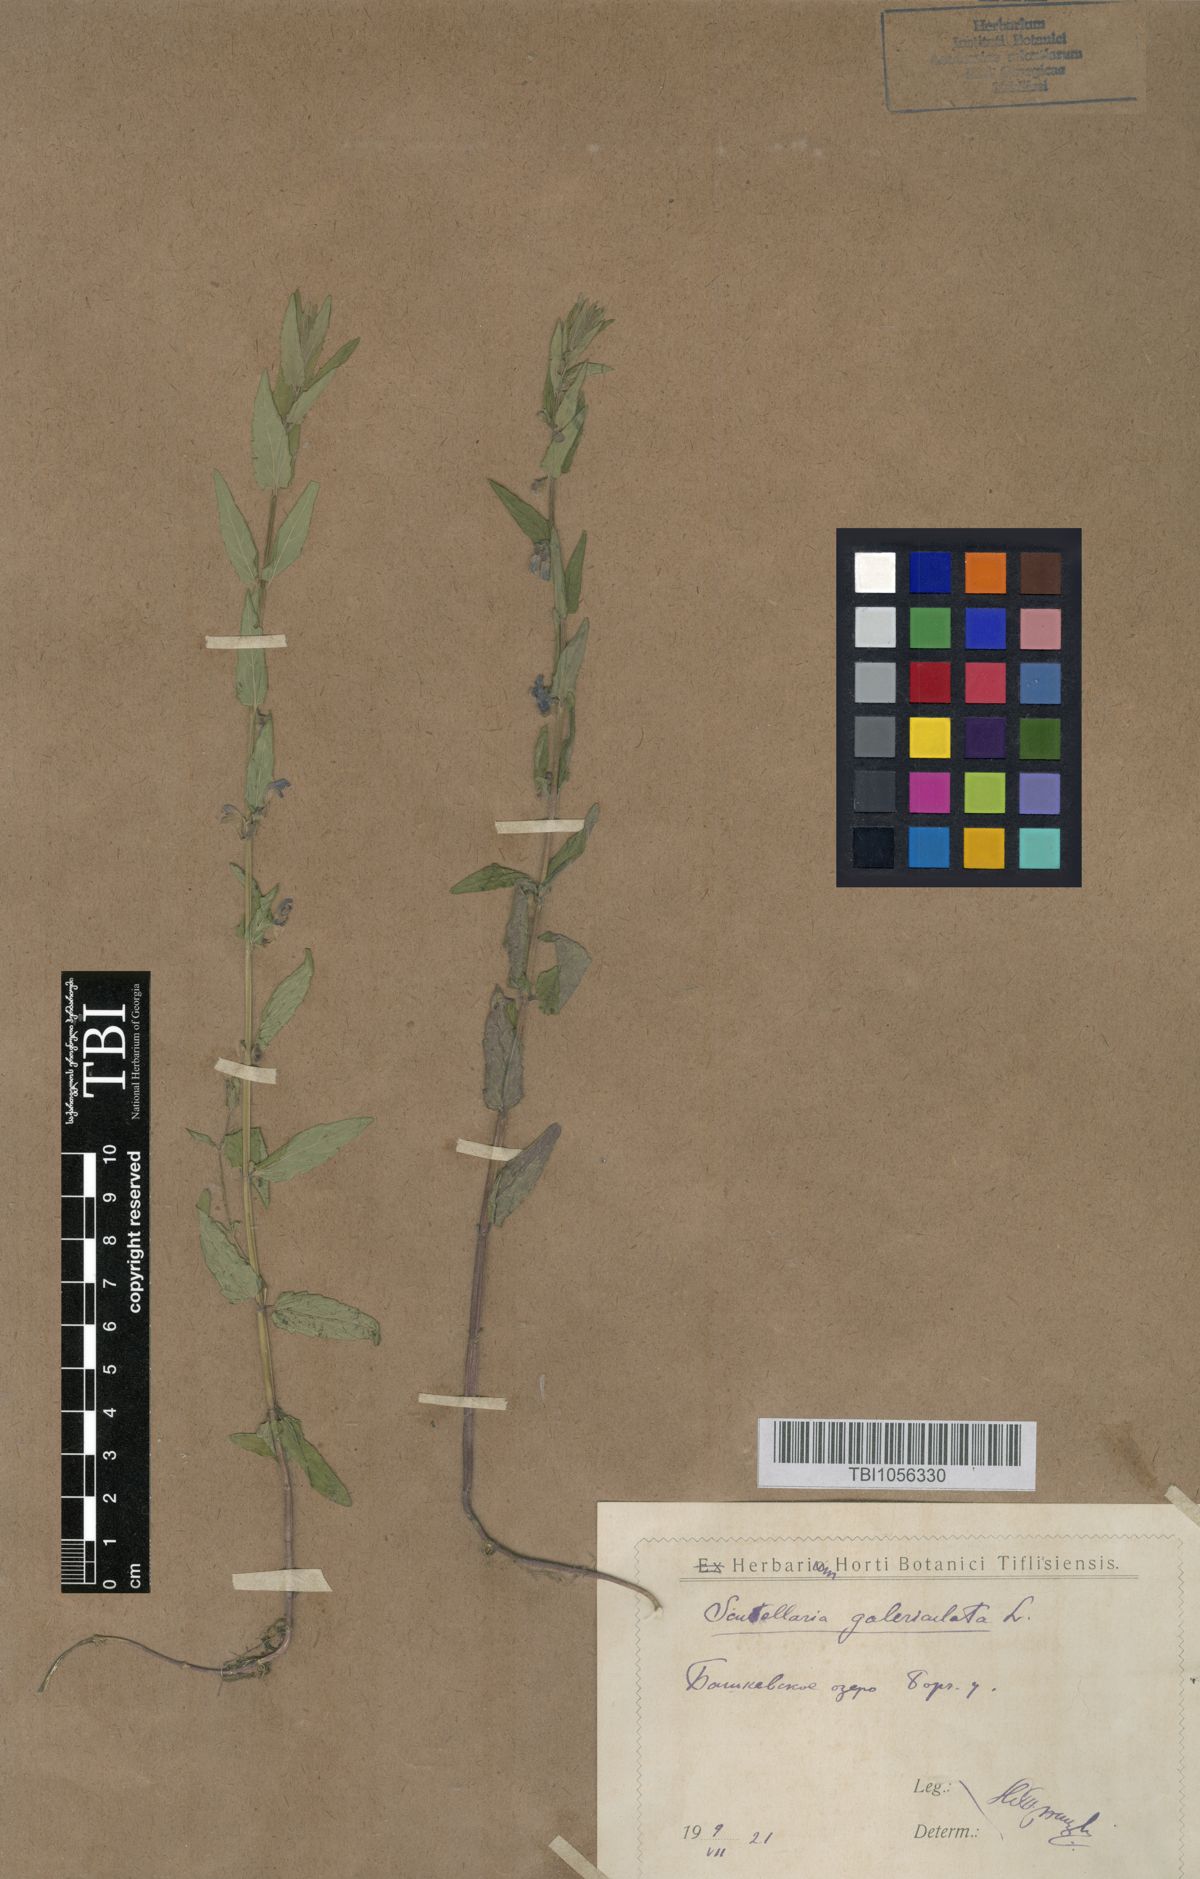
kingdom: Plantae
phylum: Tracheophyta
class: Magnoliopsida
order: Lamiales
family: Lamiaceae
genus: Scutellaria
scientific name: Scutellaria galericulata
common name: Skullcap
